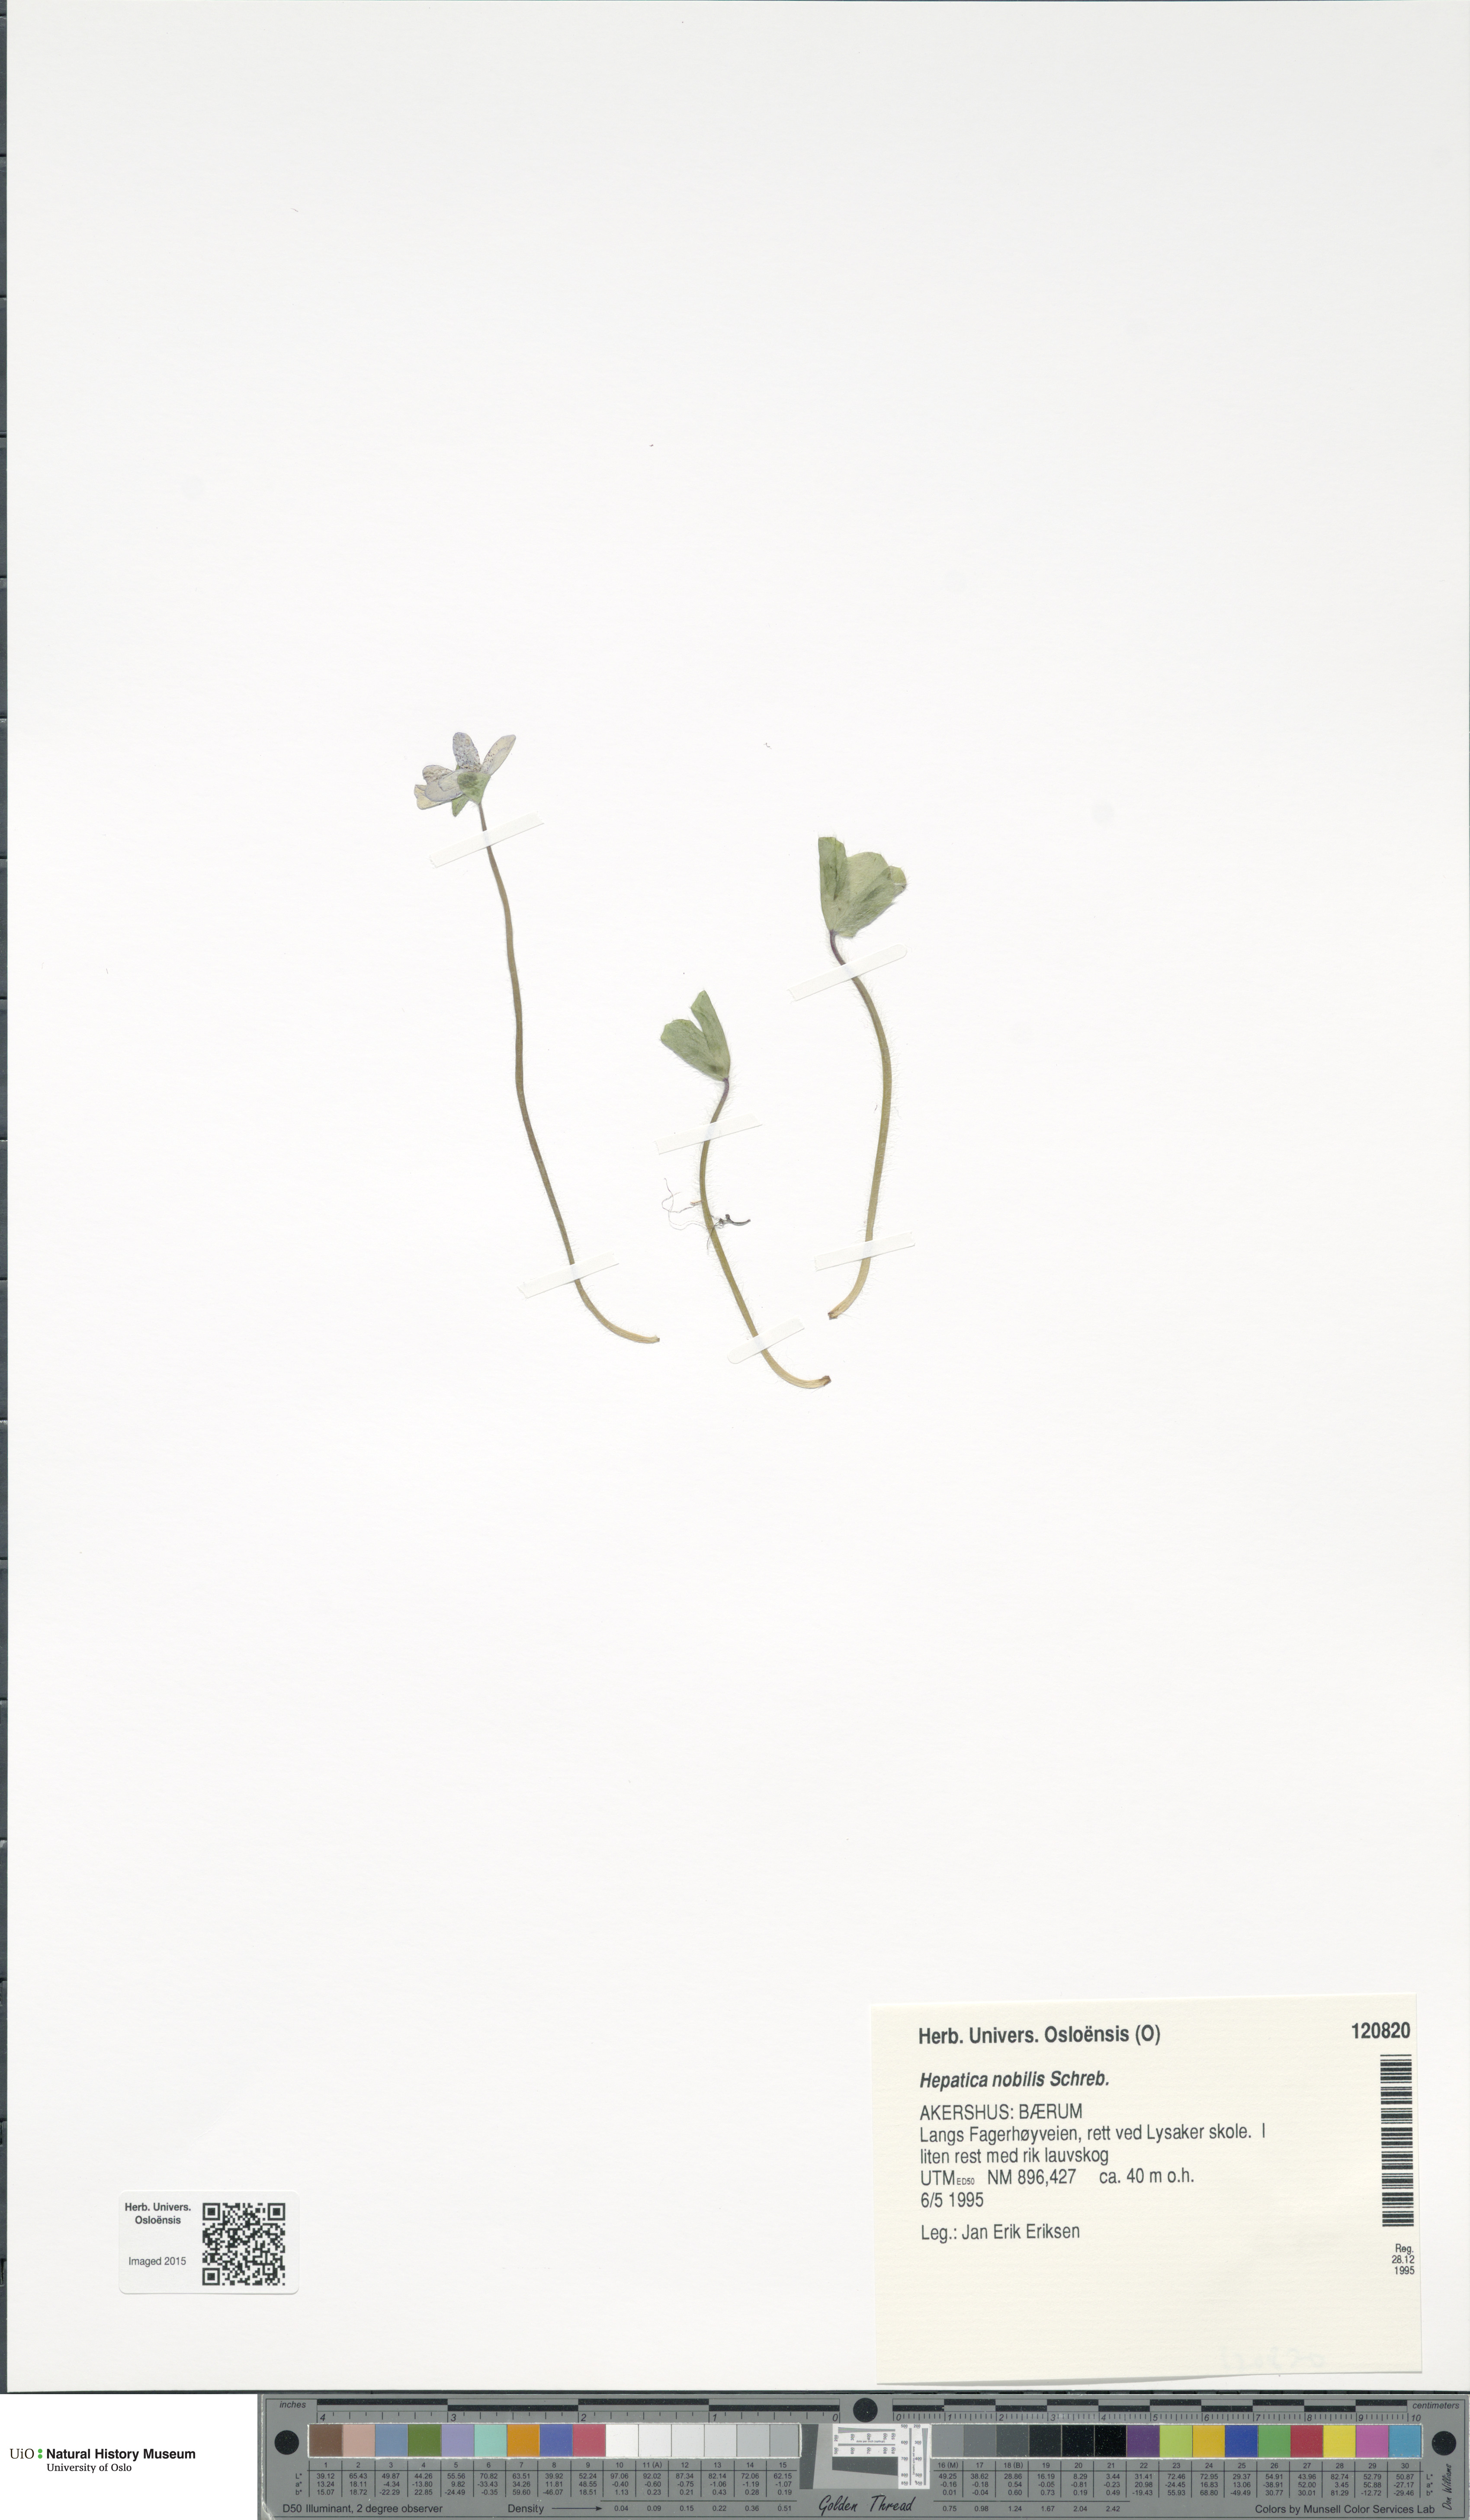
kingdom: Plantae
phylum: Tracheophyta
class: Magnoliopsida
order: Ranunculales
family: Ranunculaceae
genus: Hepatica
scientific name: Hepatica nobilis
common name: Liverleaf
